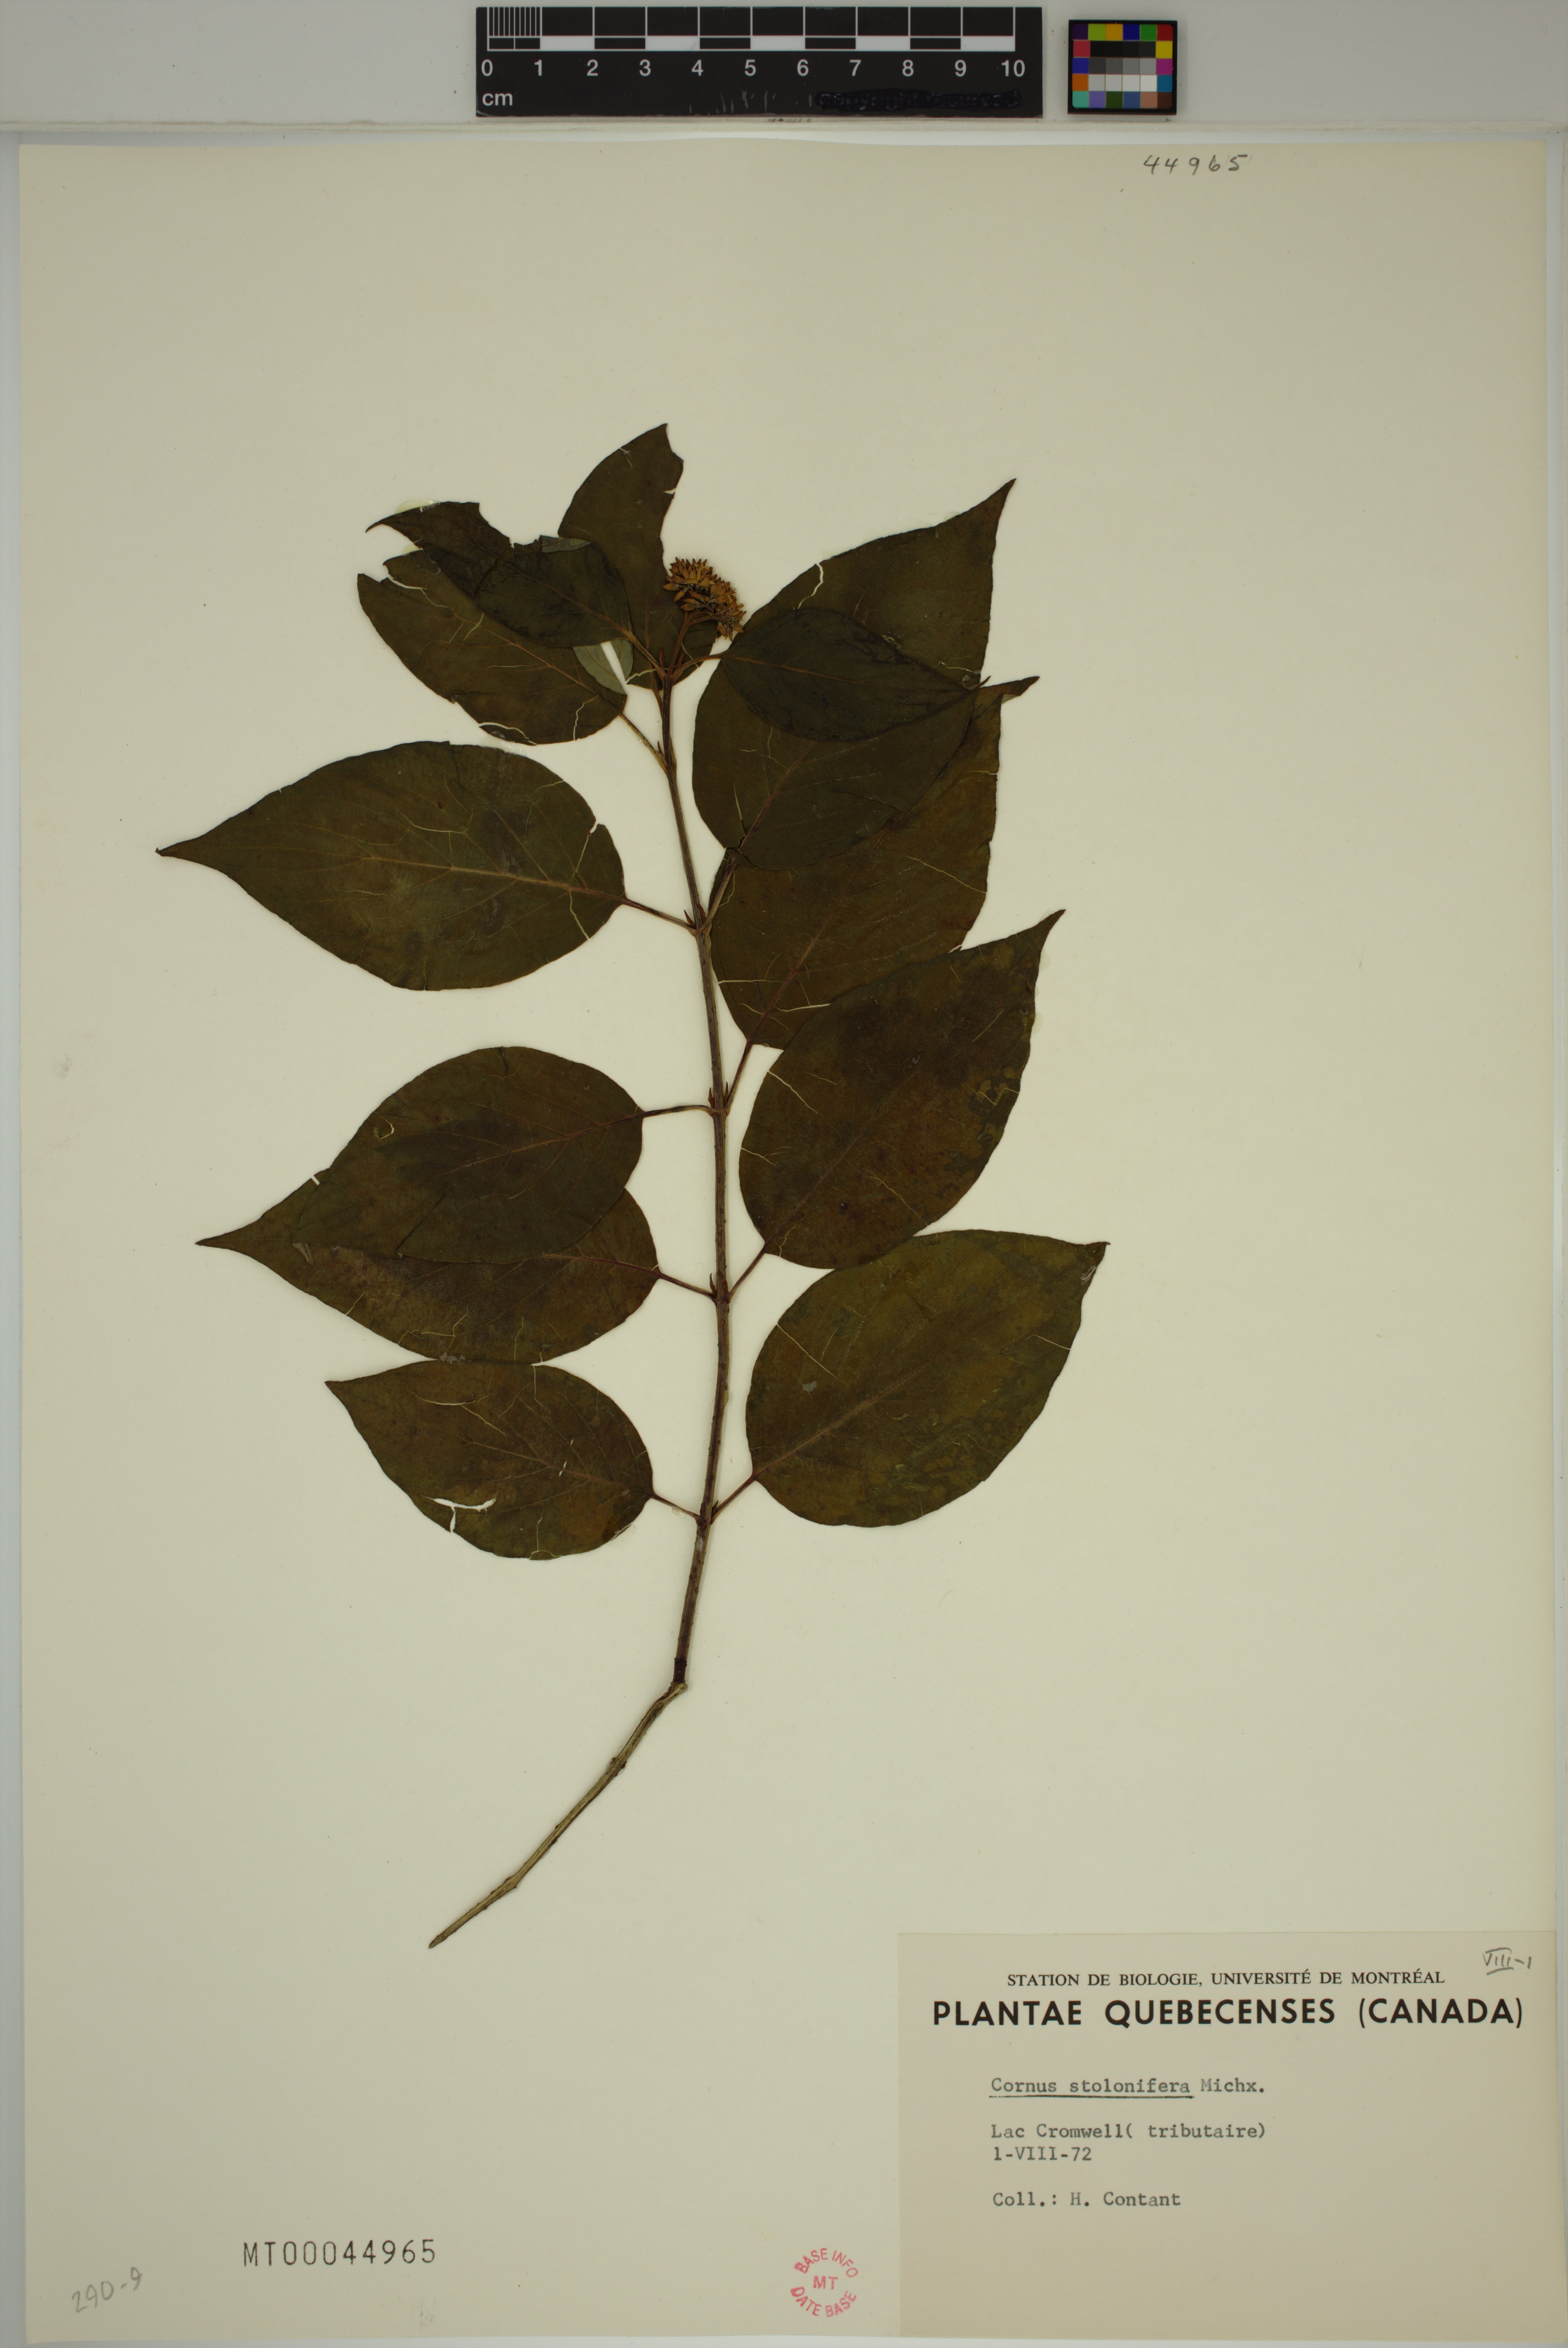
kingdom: Plantae
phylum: Tracheophyta
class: Magnoliopsida
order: Cornales
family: Cornaceae
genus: Cornus
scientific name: Cornus sericea
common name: Red-osier dogwood
